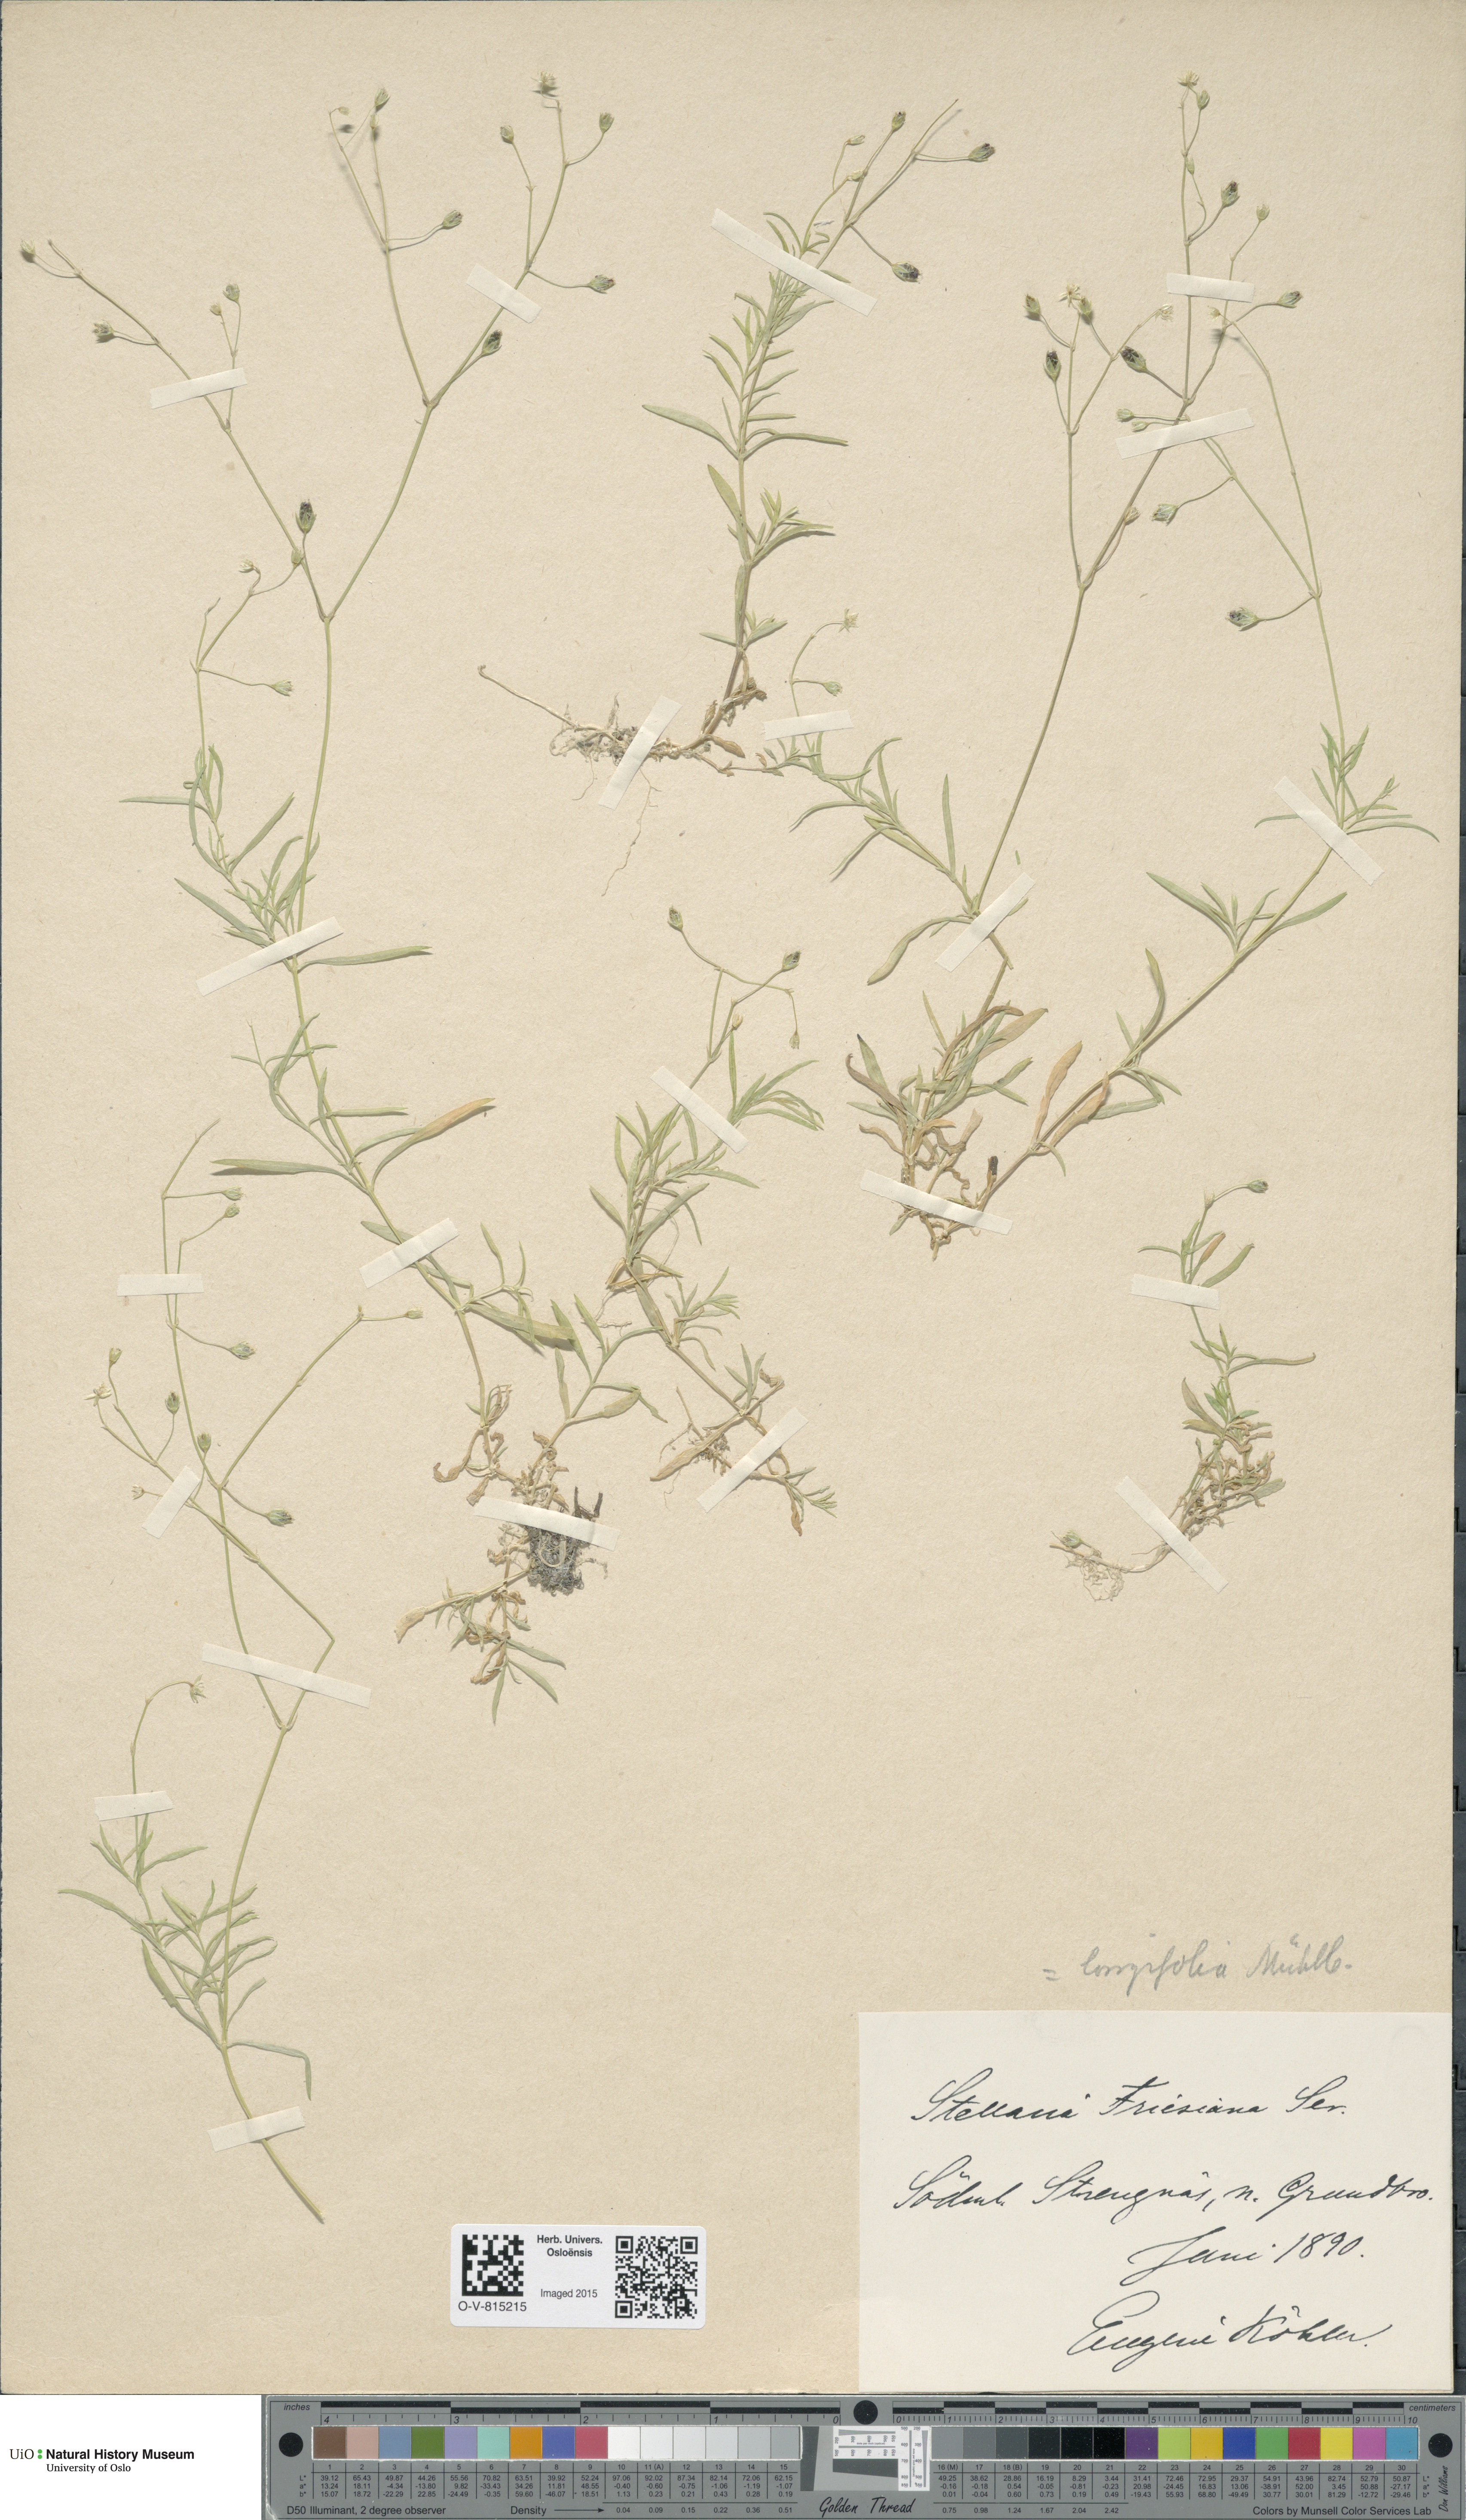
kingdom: Plantae
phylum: Tracheophyta
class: Magnoliopsida
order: Caryophyllales
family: Caryophyllaceae
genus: Stellaria
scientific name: Stellaria longifolia
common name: Long-leaved chickweed
